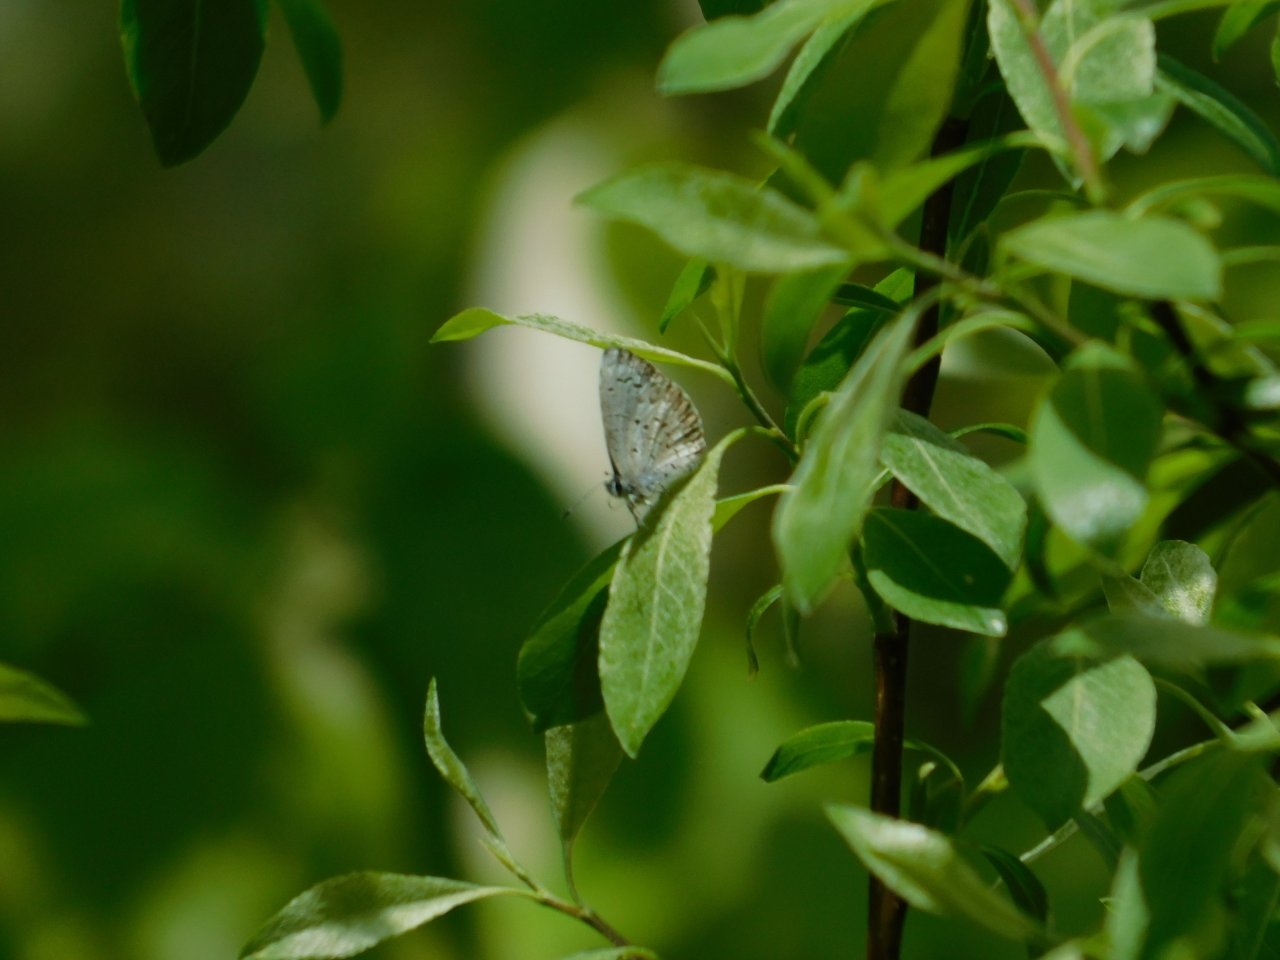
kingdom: Animalia
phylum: Arthropoda
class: Insecta
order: Lepidoptera
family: Lycaenidae
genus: Celastrina
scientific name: Celastrina lucia
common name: Northern Spring Azure
